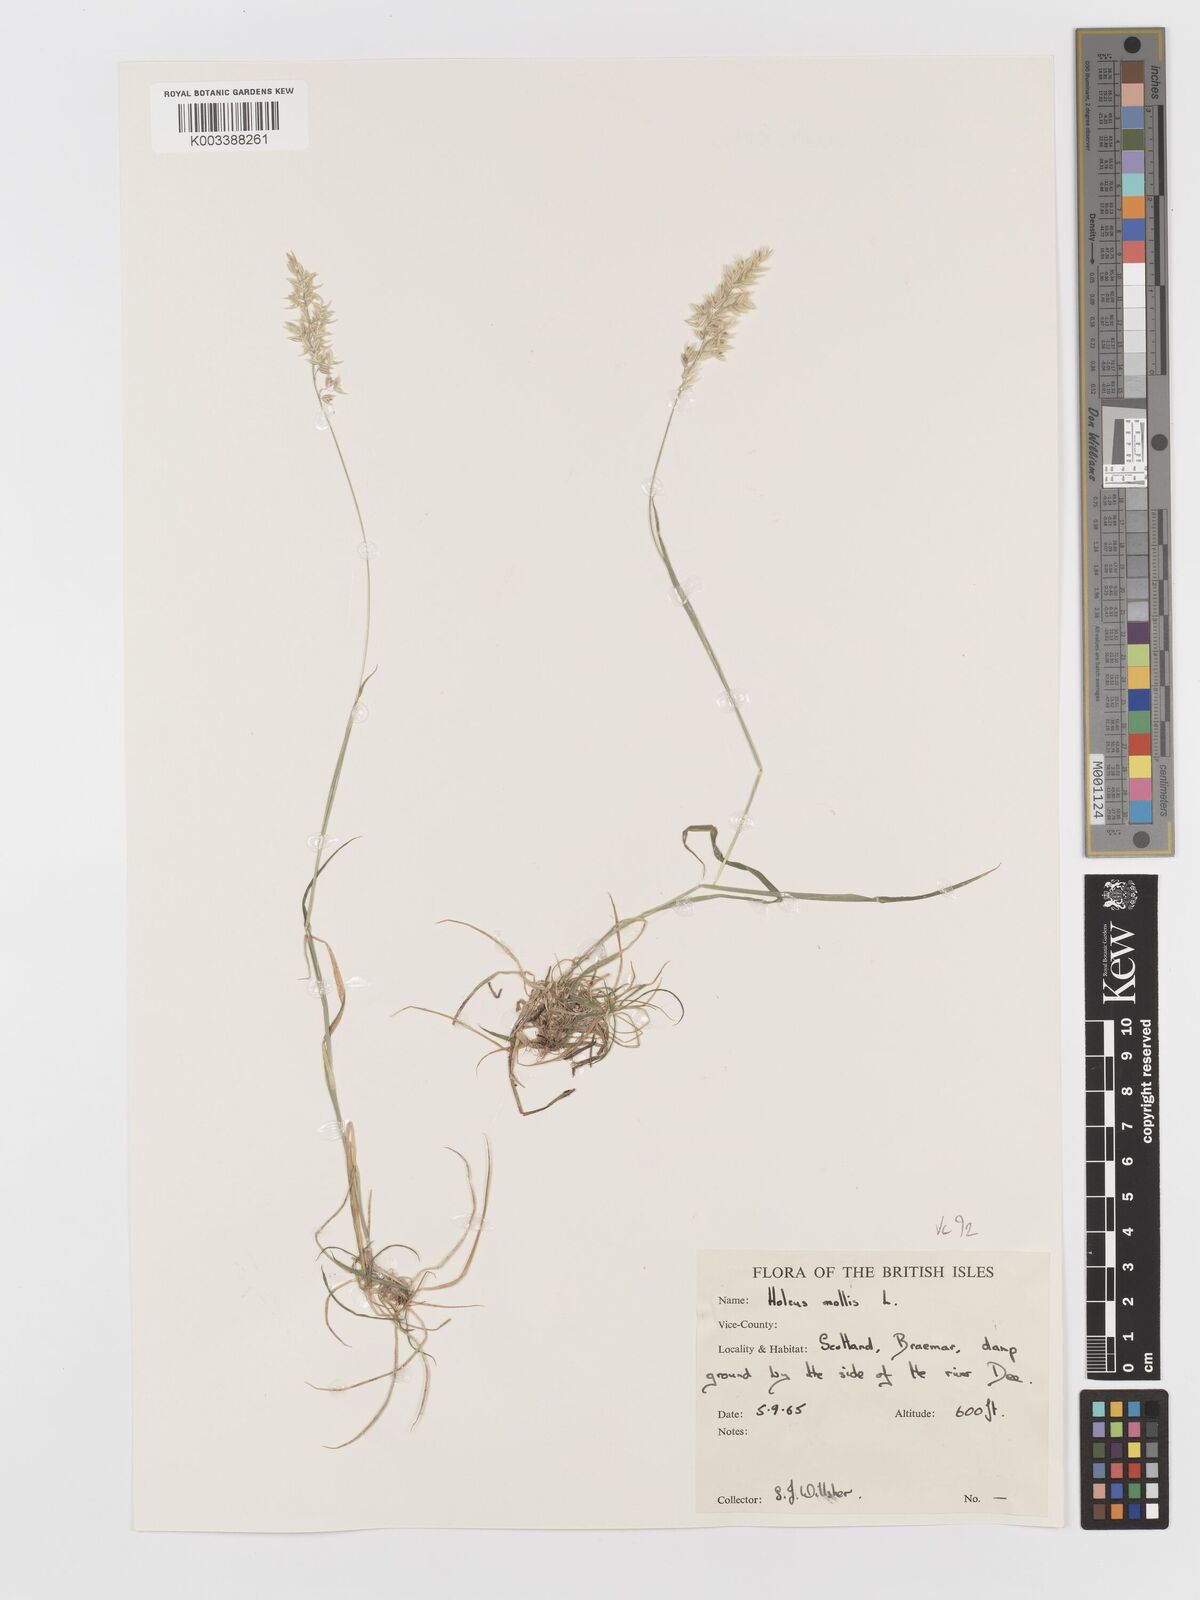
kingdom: Plantae
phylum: Tracheophyta
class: Liliopsida
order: Poales
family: Poaceae
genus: Holcus
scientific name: Holcus mollis
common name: Creeping velvetgrass
